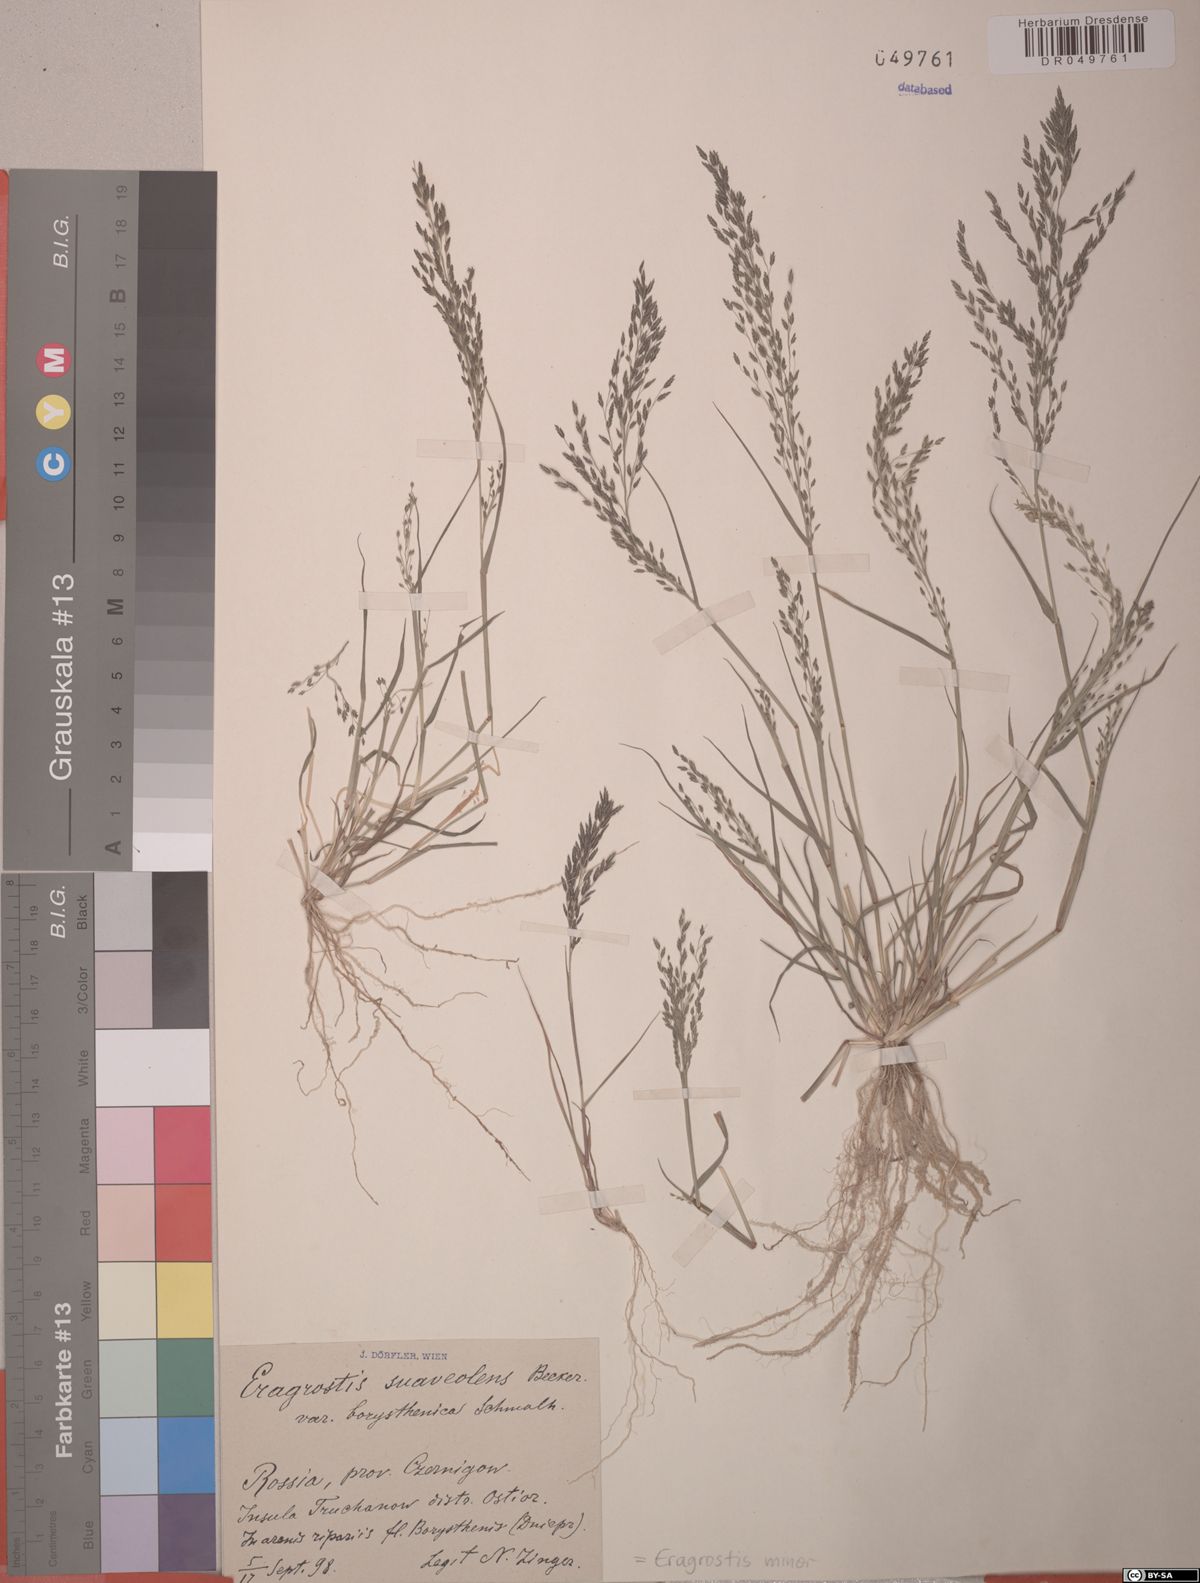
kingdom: Plantae
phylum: Tracheophyta
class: Liliopsida
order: Poales
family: Poaceae
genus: Eragrostis
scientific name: Eragrostis minor
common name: Small love-grass
